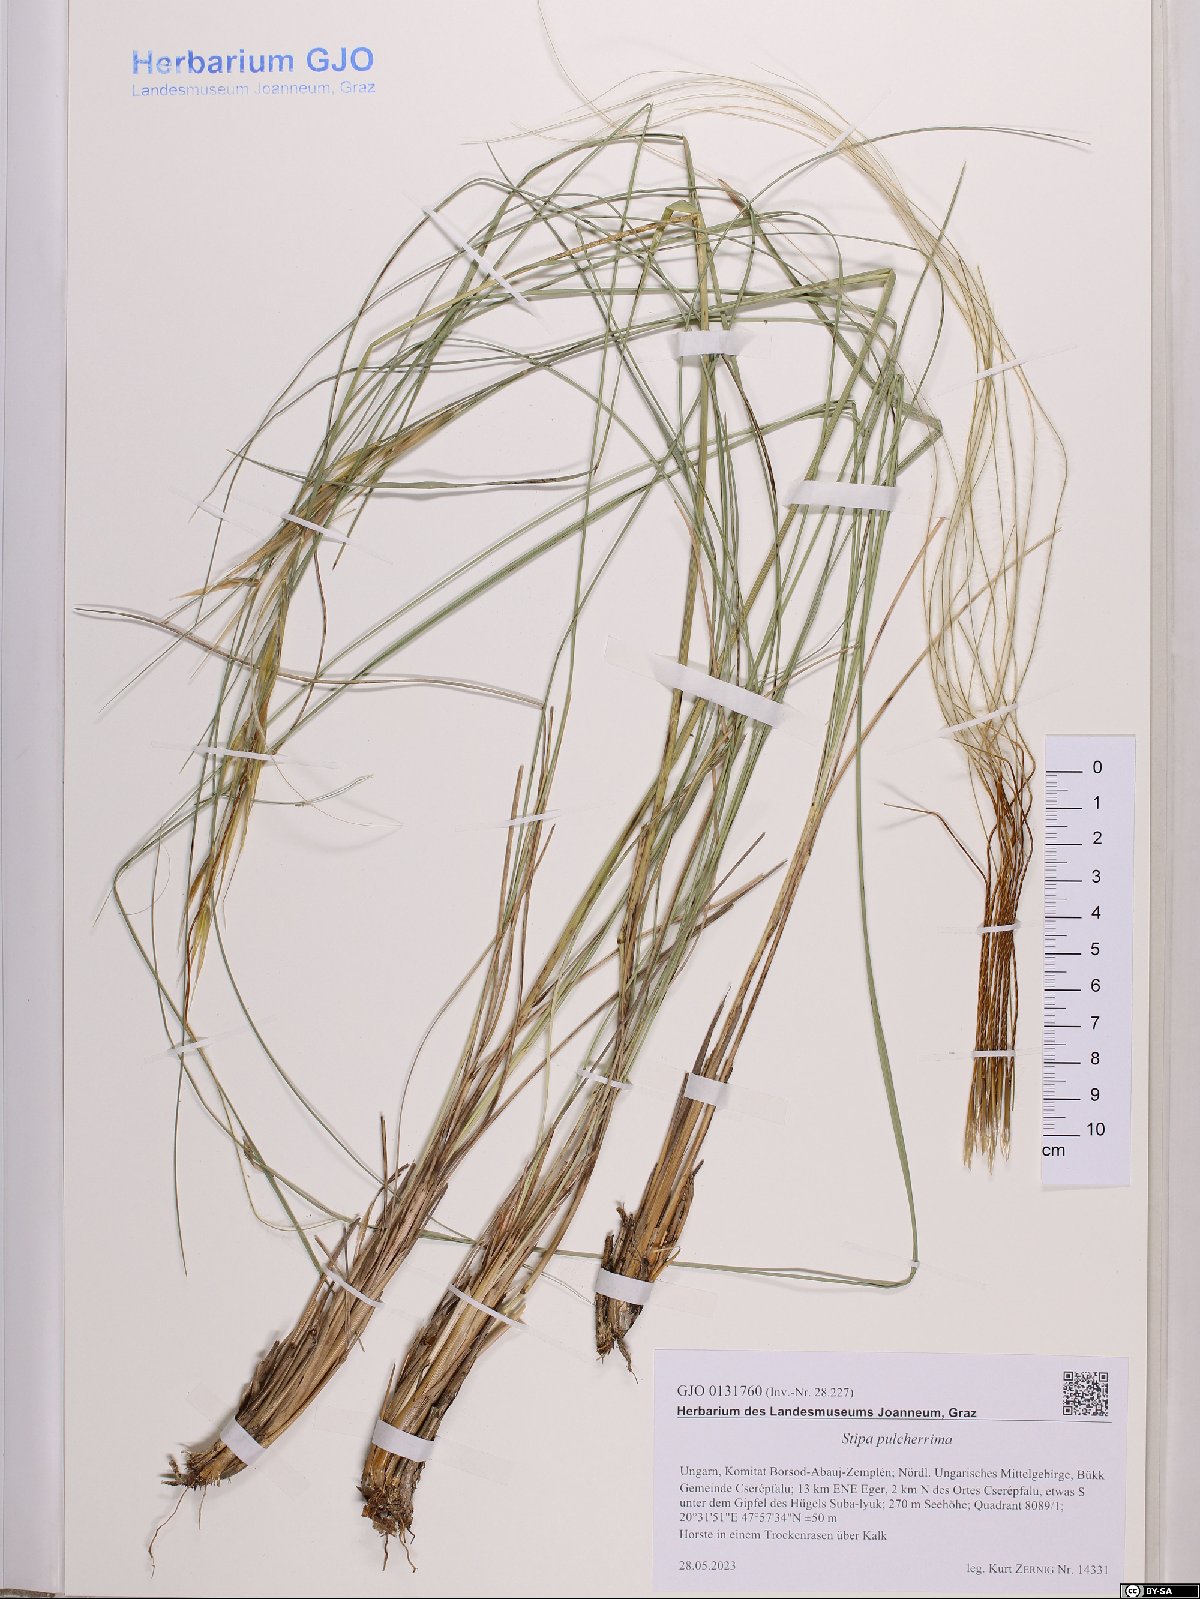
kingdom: Plantae
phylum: Tracheophyta
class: Liliopsida
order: Poales
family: Poaceae
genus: Stipa
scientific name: Stipa pulcherrima
